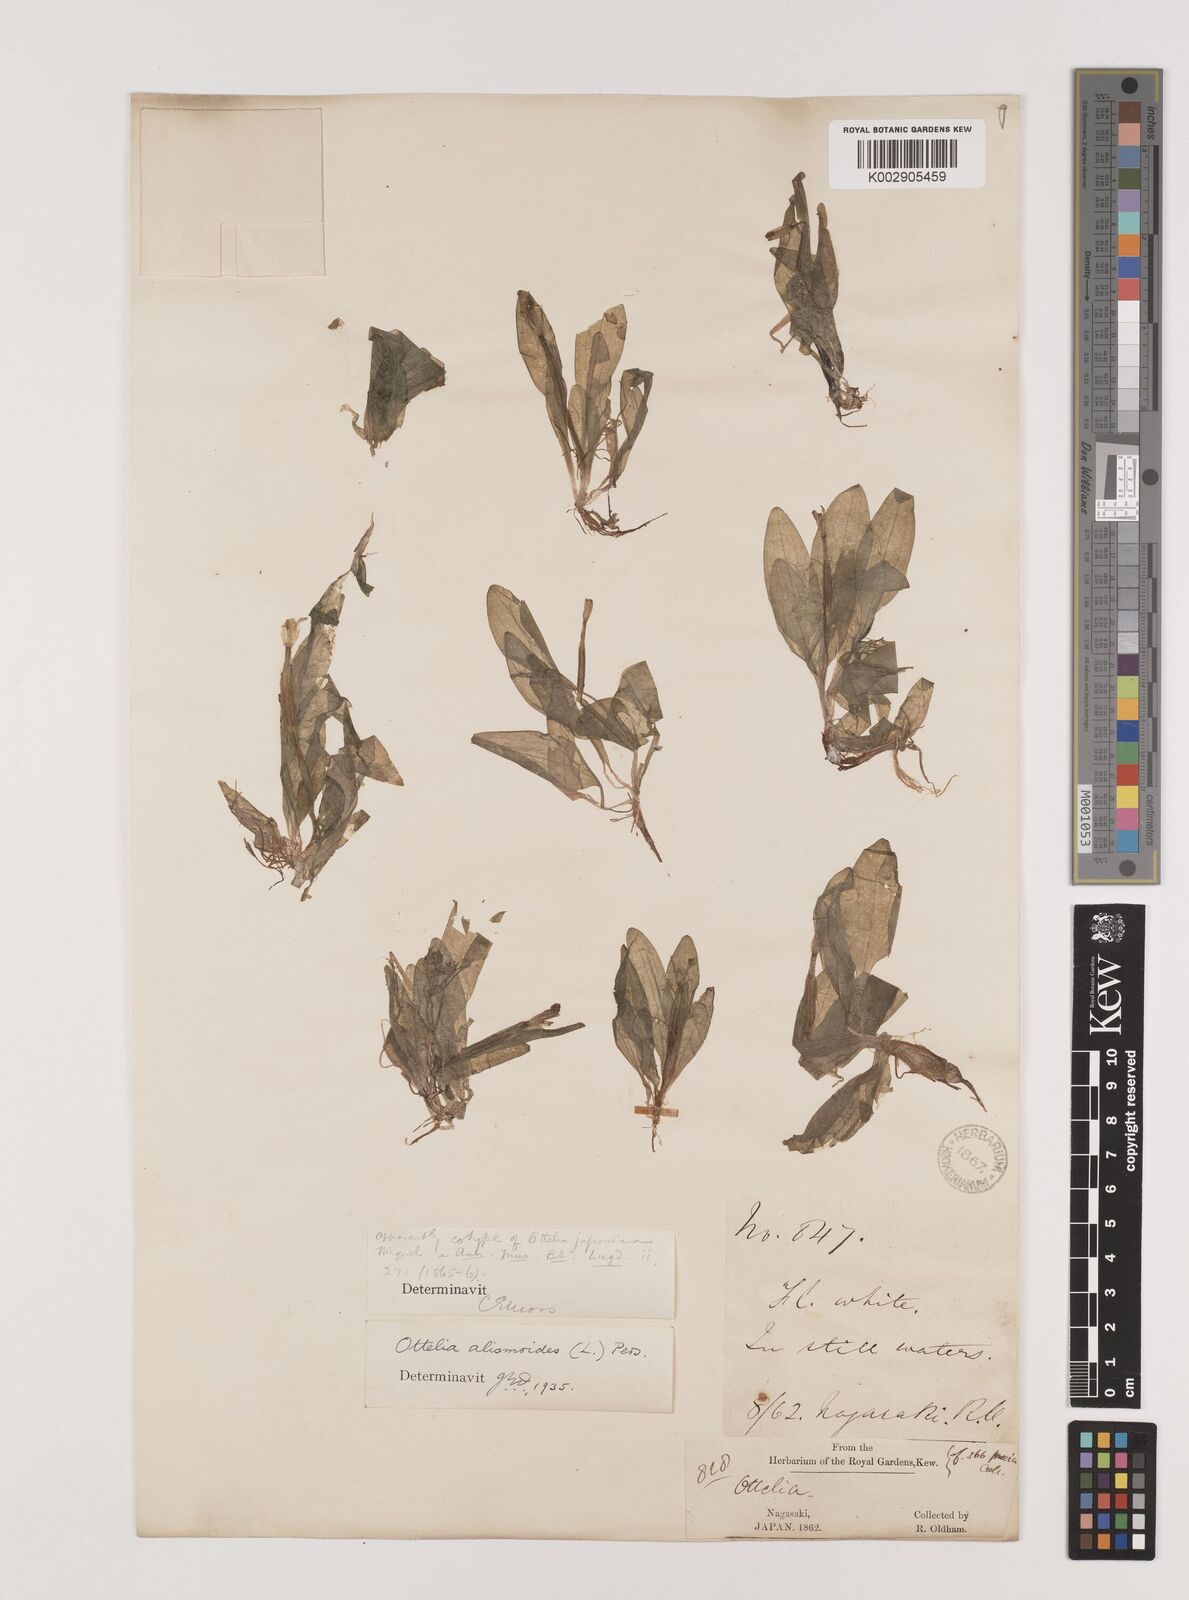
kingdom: Plantae
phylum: Tracheophyta
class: Liliopsida
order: Alismatales
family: Hydrocharitaceae
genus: Ottelia
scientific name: Ottelia alismoides
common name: Duck-lettuce
